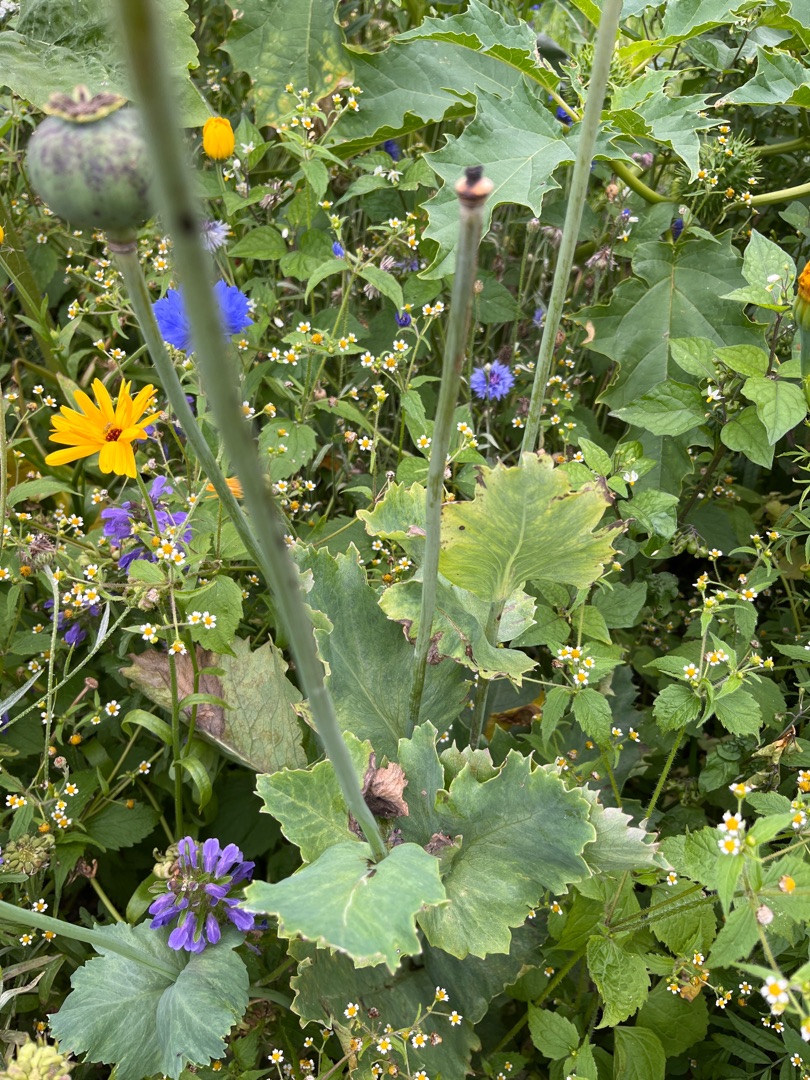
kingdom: Plantae
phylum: Tracheophyta
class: Magnoliopsida
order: Ranunculales
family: Papaveraceae
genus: Papaver
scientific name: Papaver somniferum
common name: Opium-valmue
